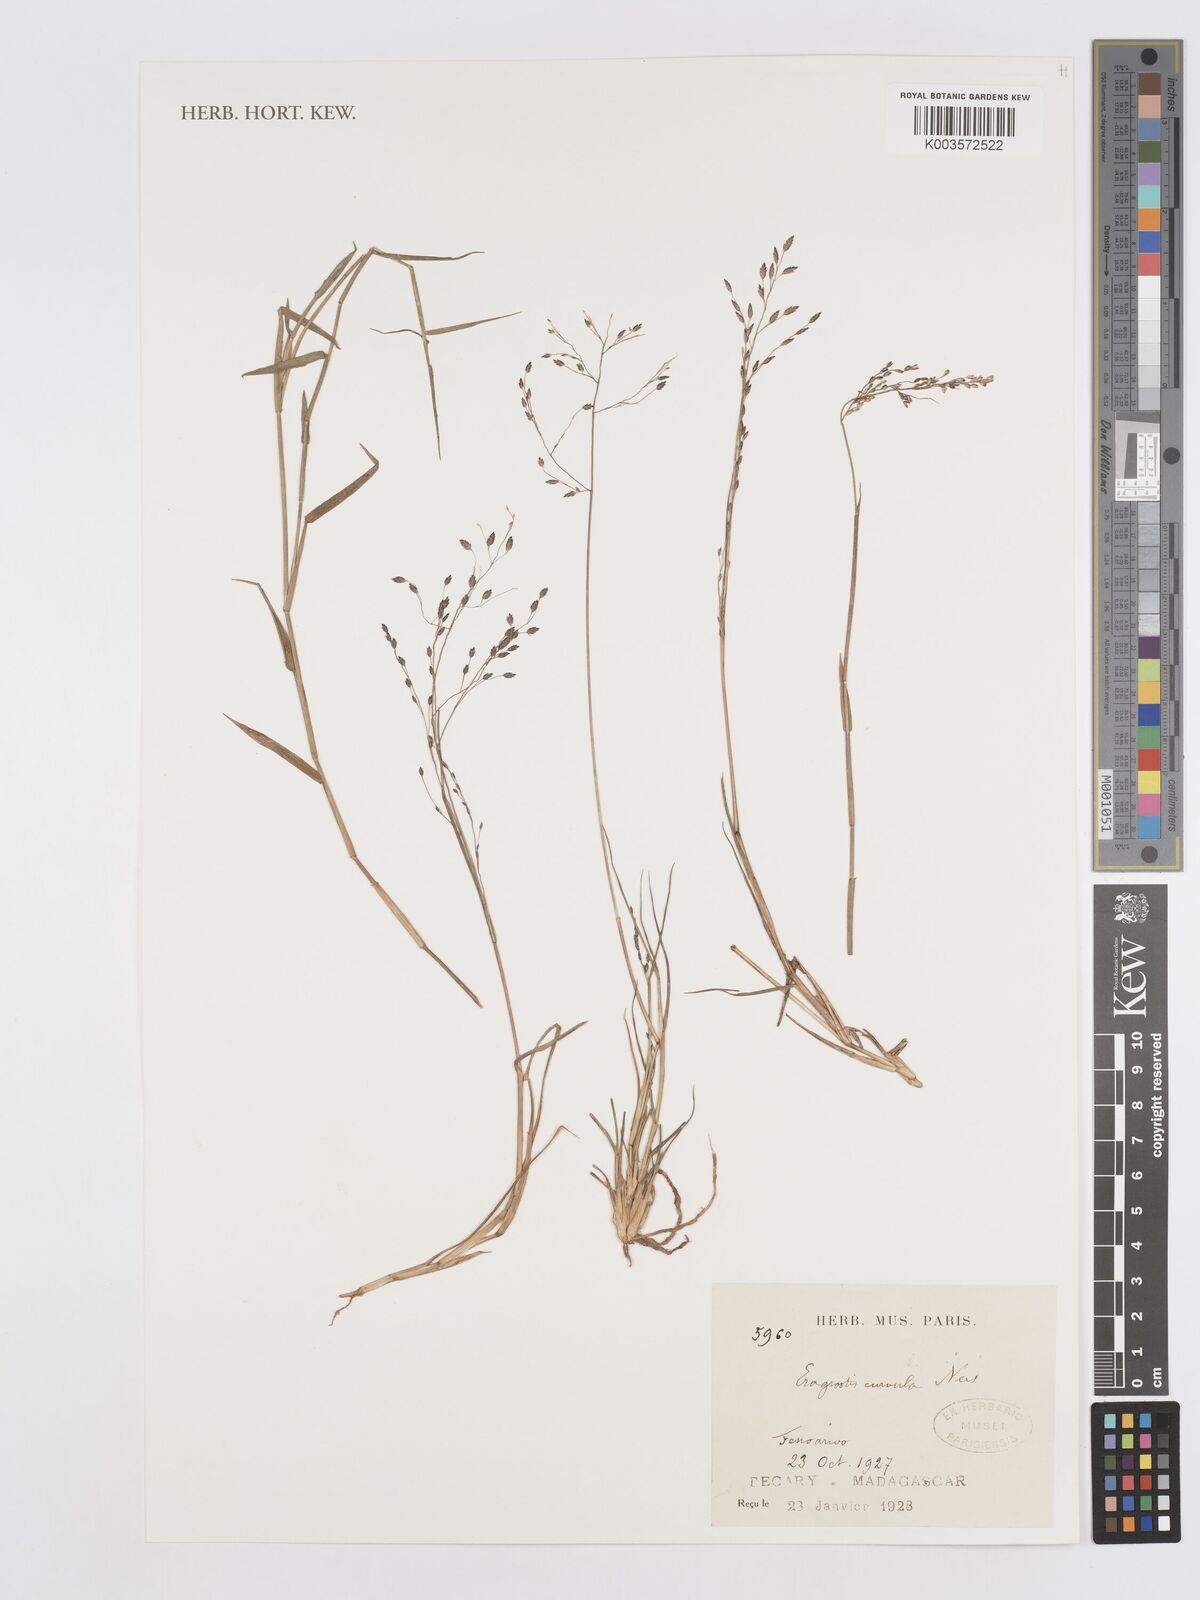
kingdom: Plantae
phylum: Tracheophyta
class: Liliopsida
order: Poales
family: Poaceae
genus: Eragrostis
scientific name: Eragrostis hildebrandtii
